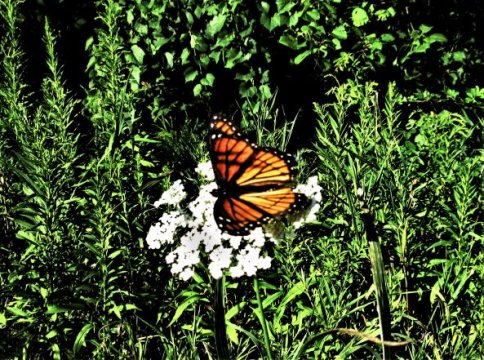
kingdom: Animalia
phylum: Arthropoda
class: Insecta
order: Lepidoptera
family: Nymphalidae
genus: Limenitis
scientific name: Limenitis archippus
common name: Viceroy
